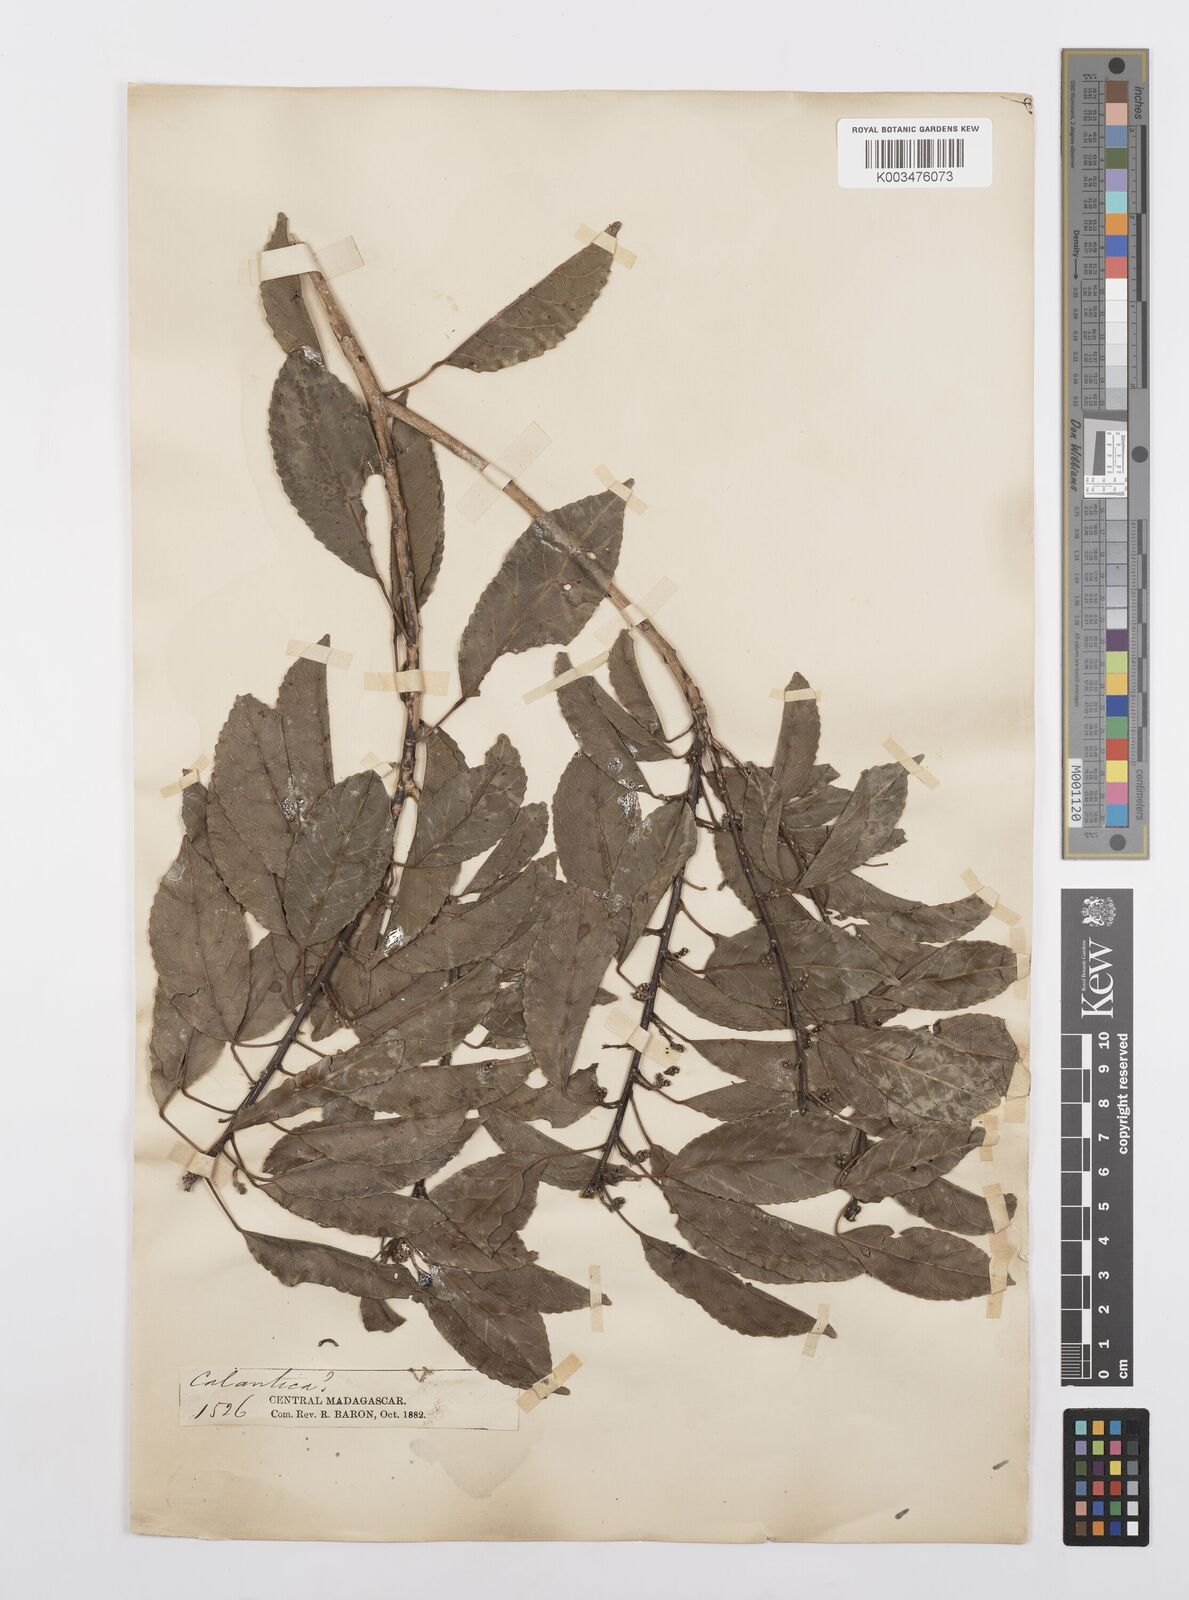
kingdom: Plantae
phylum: Tracheophyta
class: Magnoliopsida
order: Malpighiales
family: Salicaceae
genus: Calantica
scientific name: Calantica
